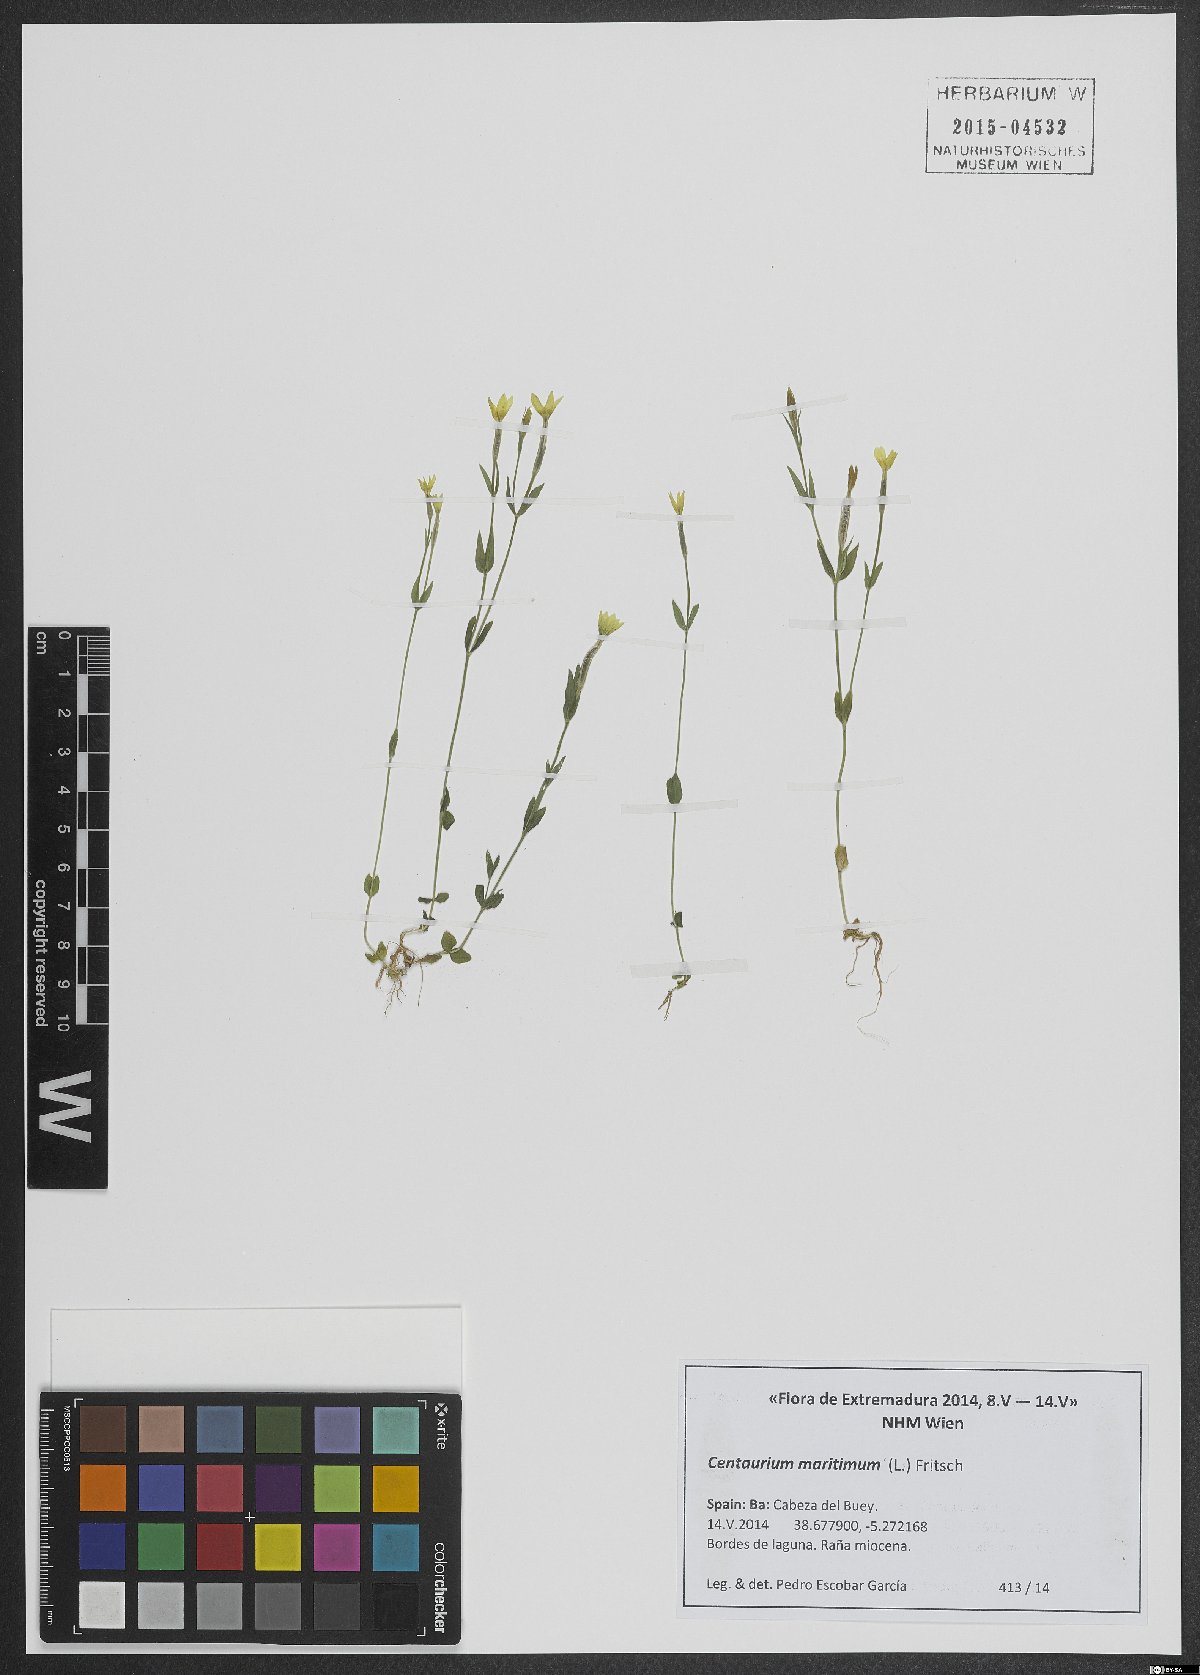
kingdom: Plantae
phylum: Tracheophyta
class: Magnoliopsida
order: Gentianales
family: Gentianaceae
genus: Centaurium
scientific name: Centaurium maritimum
